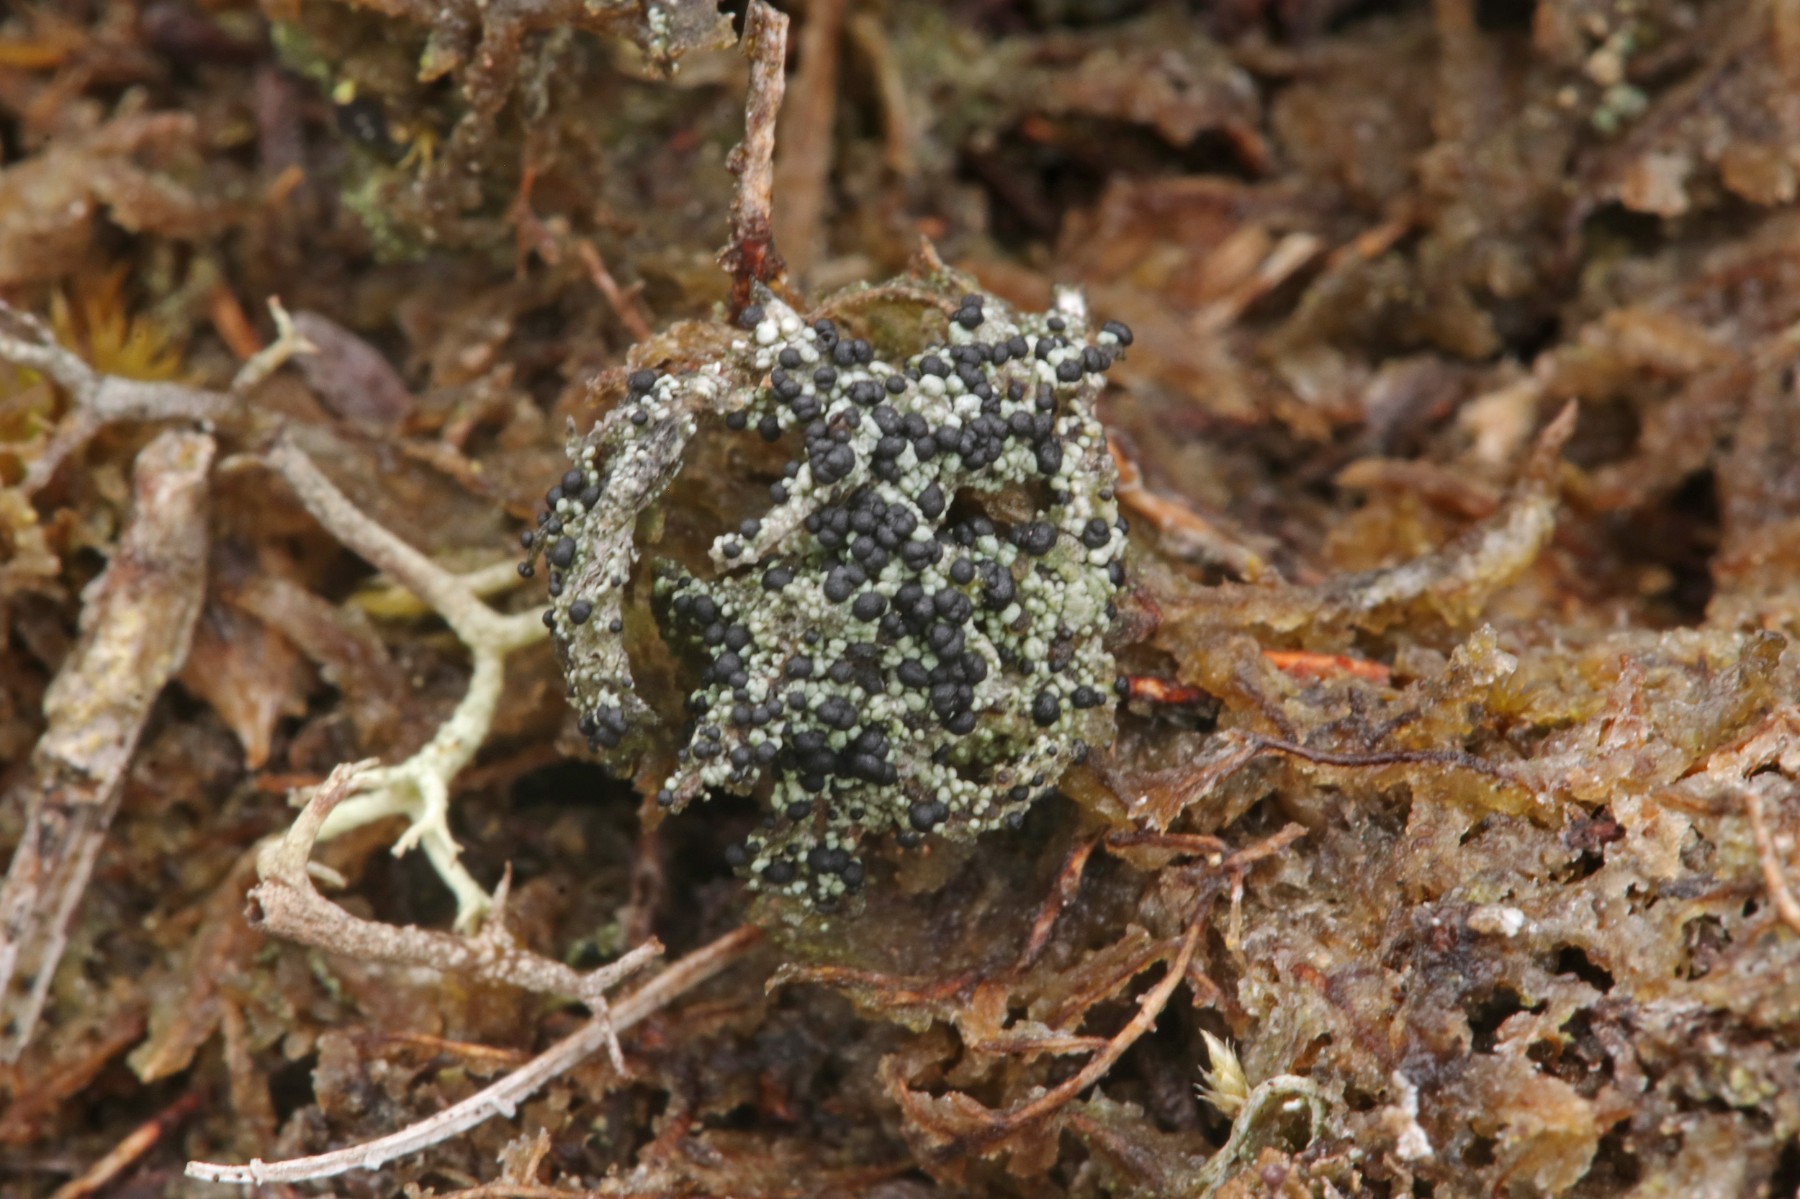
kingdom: Fungi
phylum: Ascomycota
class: Lecanoromycetes
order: Lecanorales
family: Byssolomataceae
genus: Micarea
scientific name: Micarea lignaria
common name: tørve-knaplav
